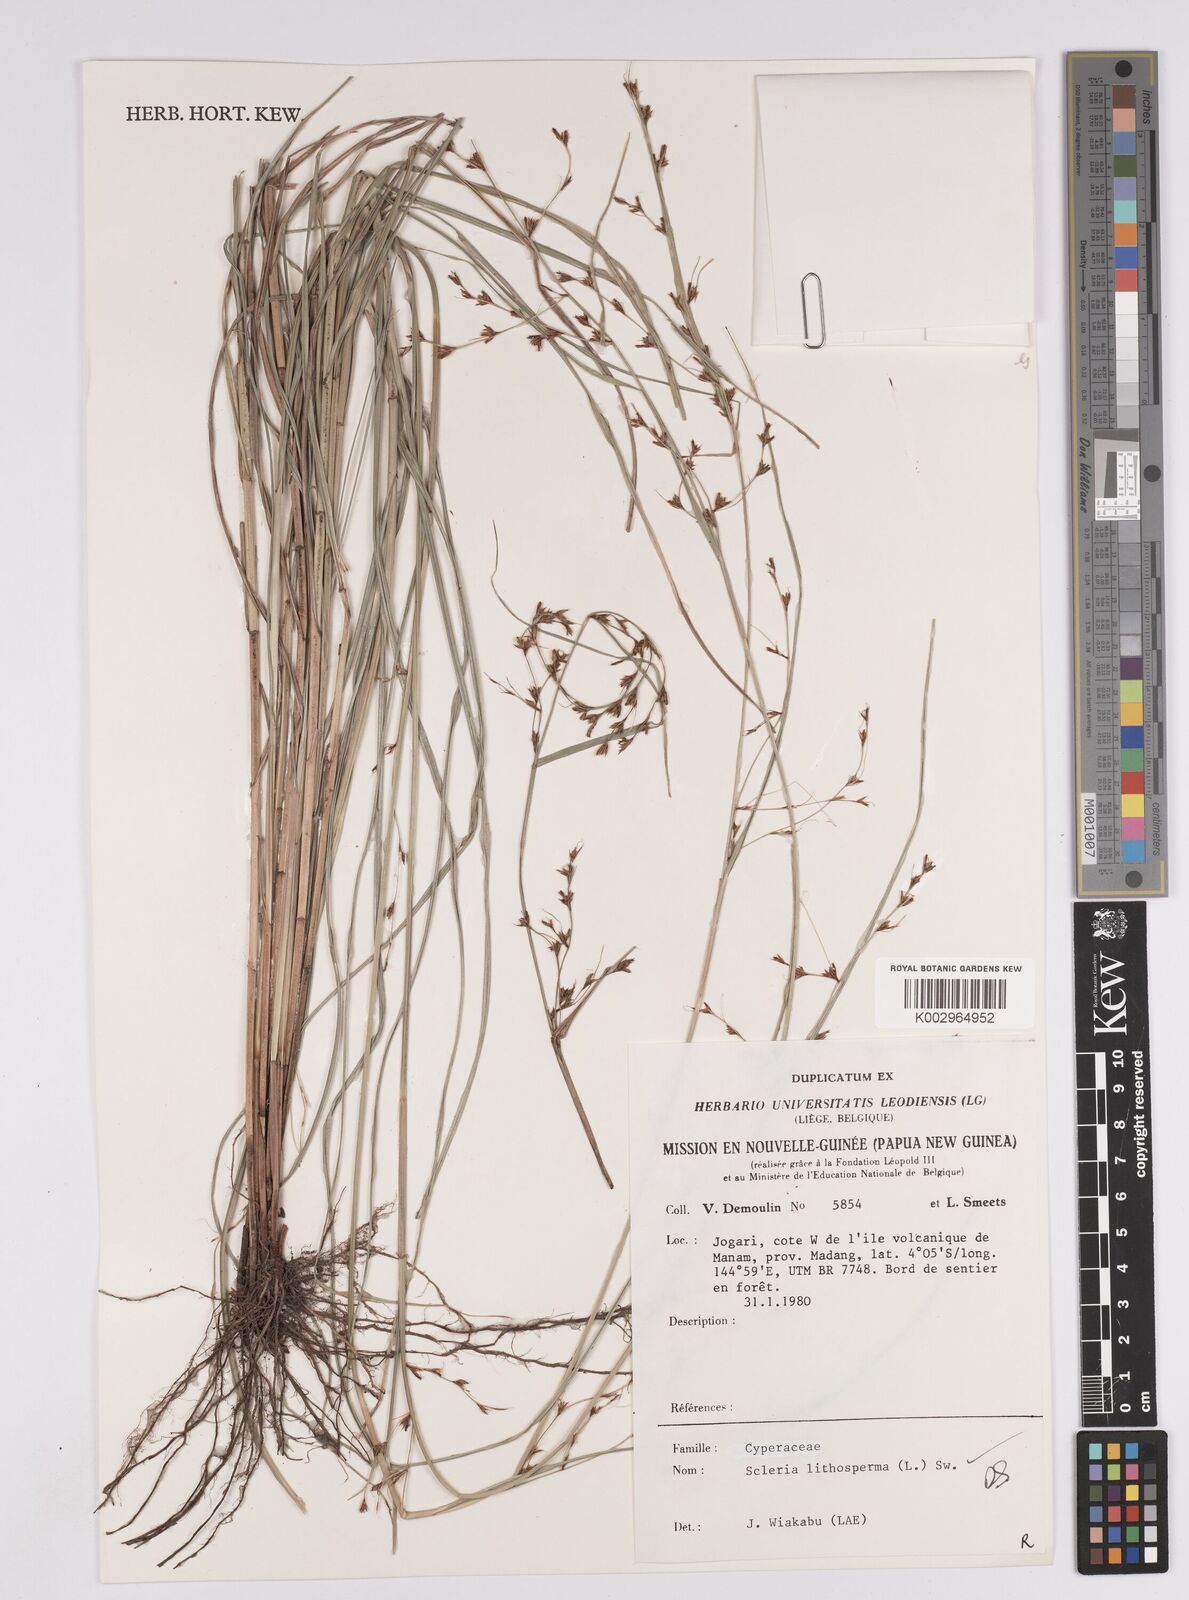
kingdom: Plantae
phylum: Tracheophyta
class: Liliopsida
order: Poales
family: Cyperaceae
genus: Scleria
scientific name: Scleria lithosperma
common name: Florida keys nut-rush
